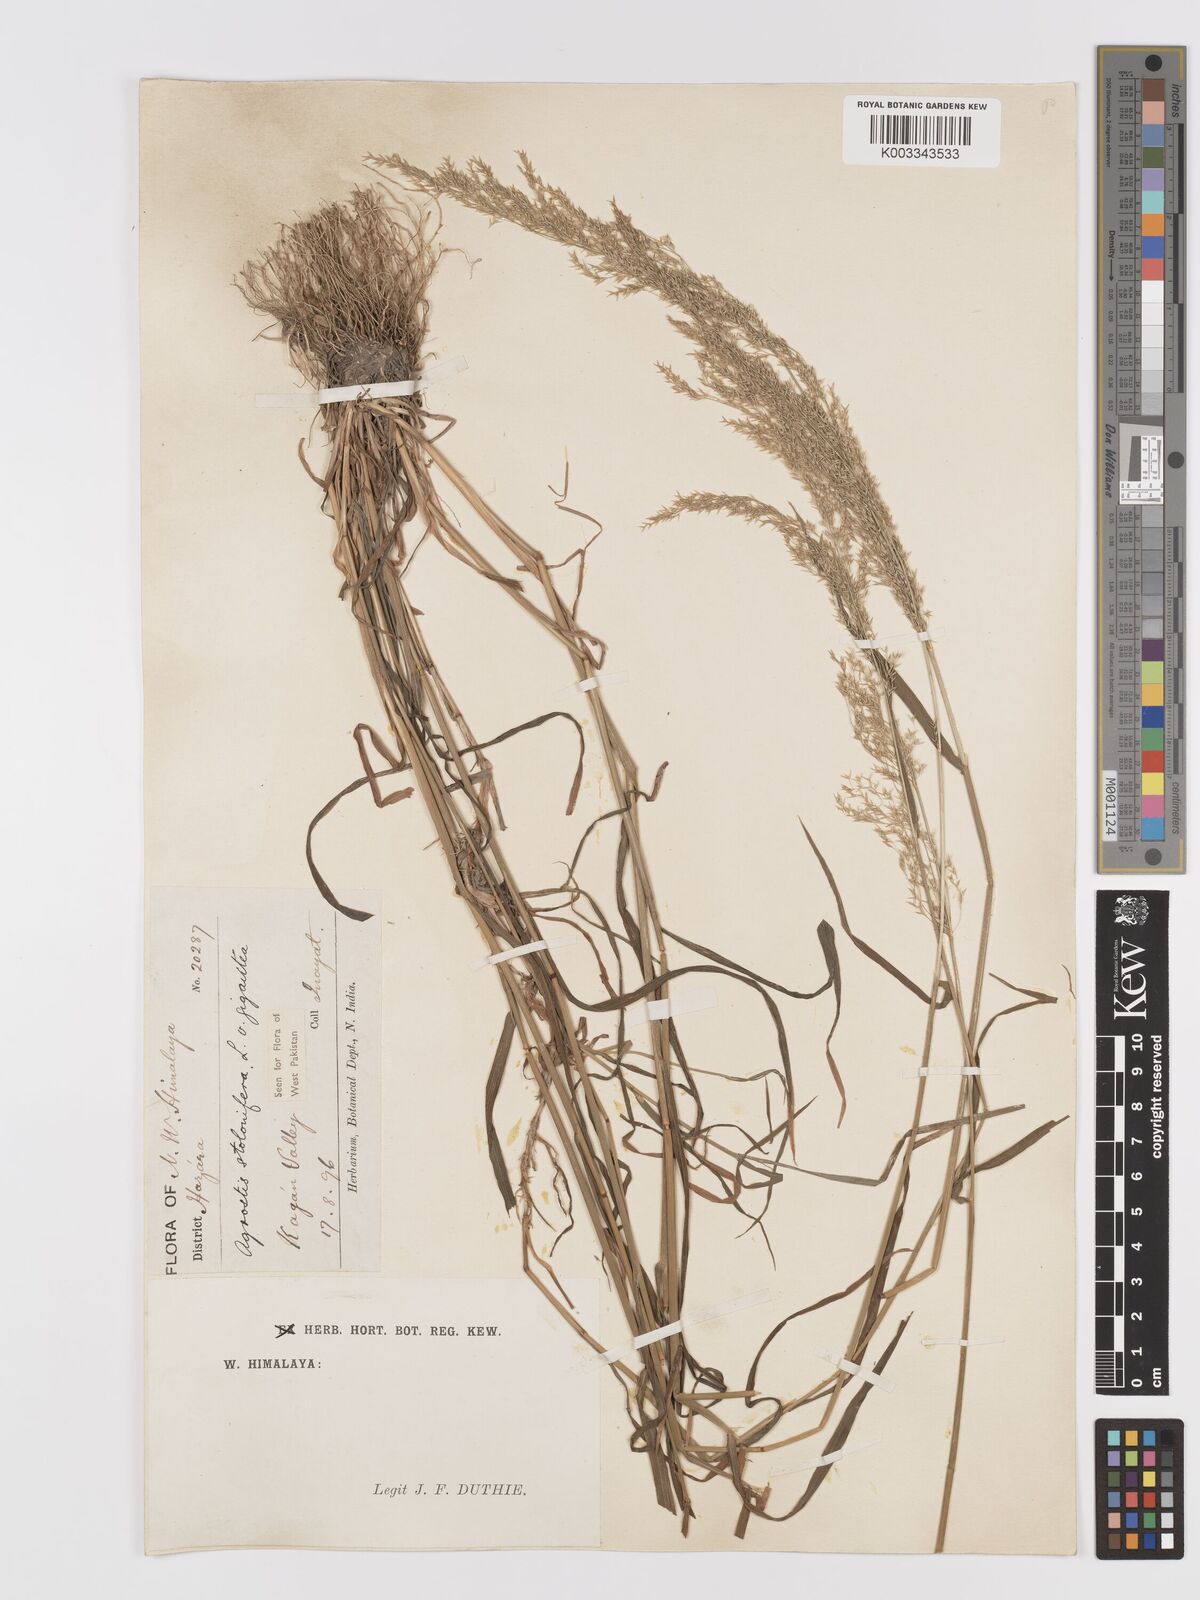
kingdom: Plantae
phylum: Tracheophyta
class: Liliopsida
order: Poales
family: Poaceae
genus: Agrostis
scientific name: Agrostis gigantea
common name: Black bent
